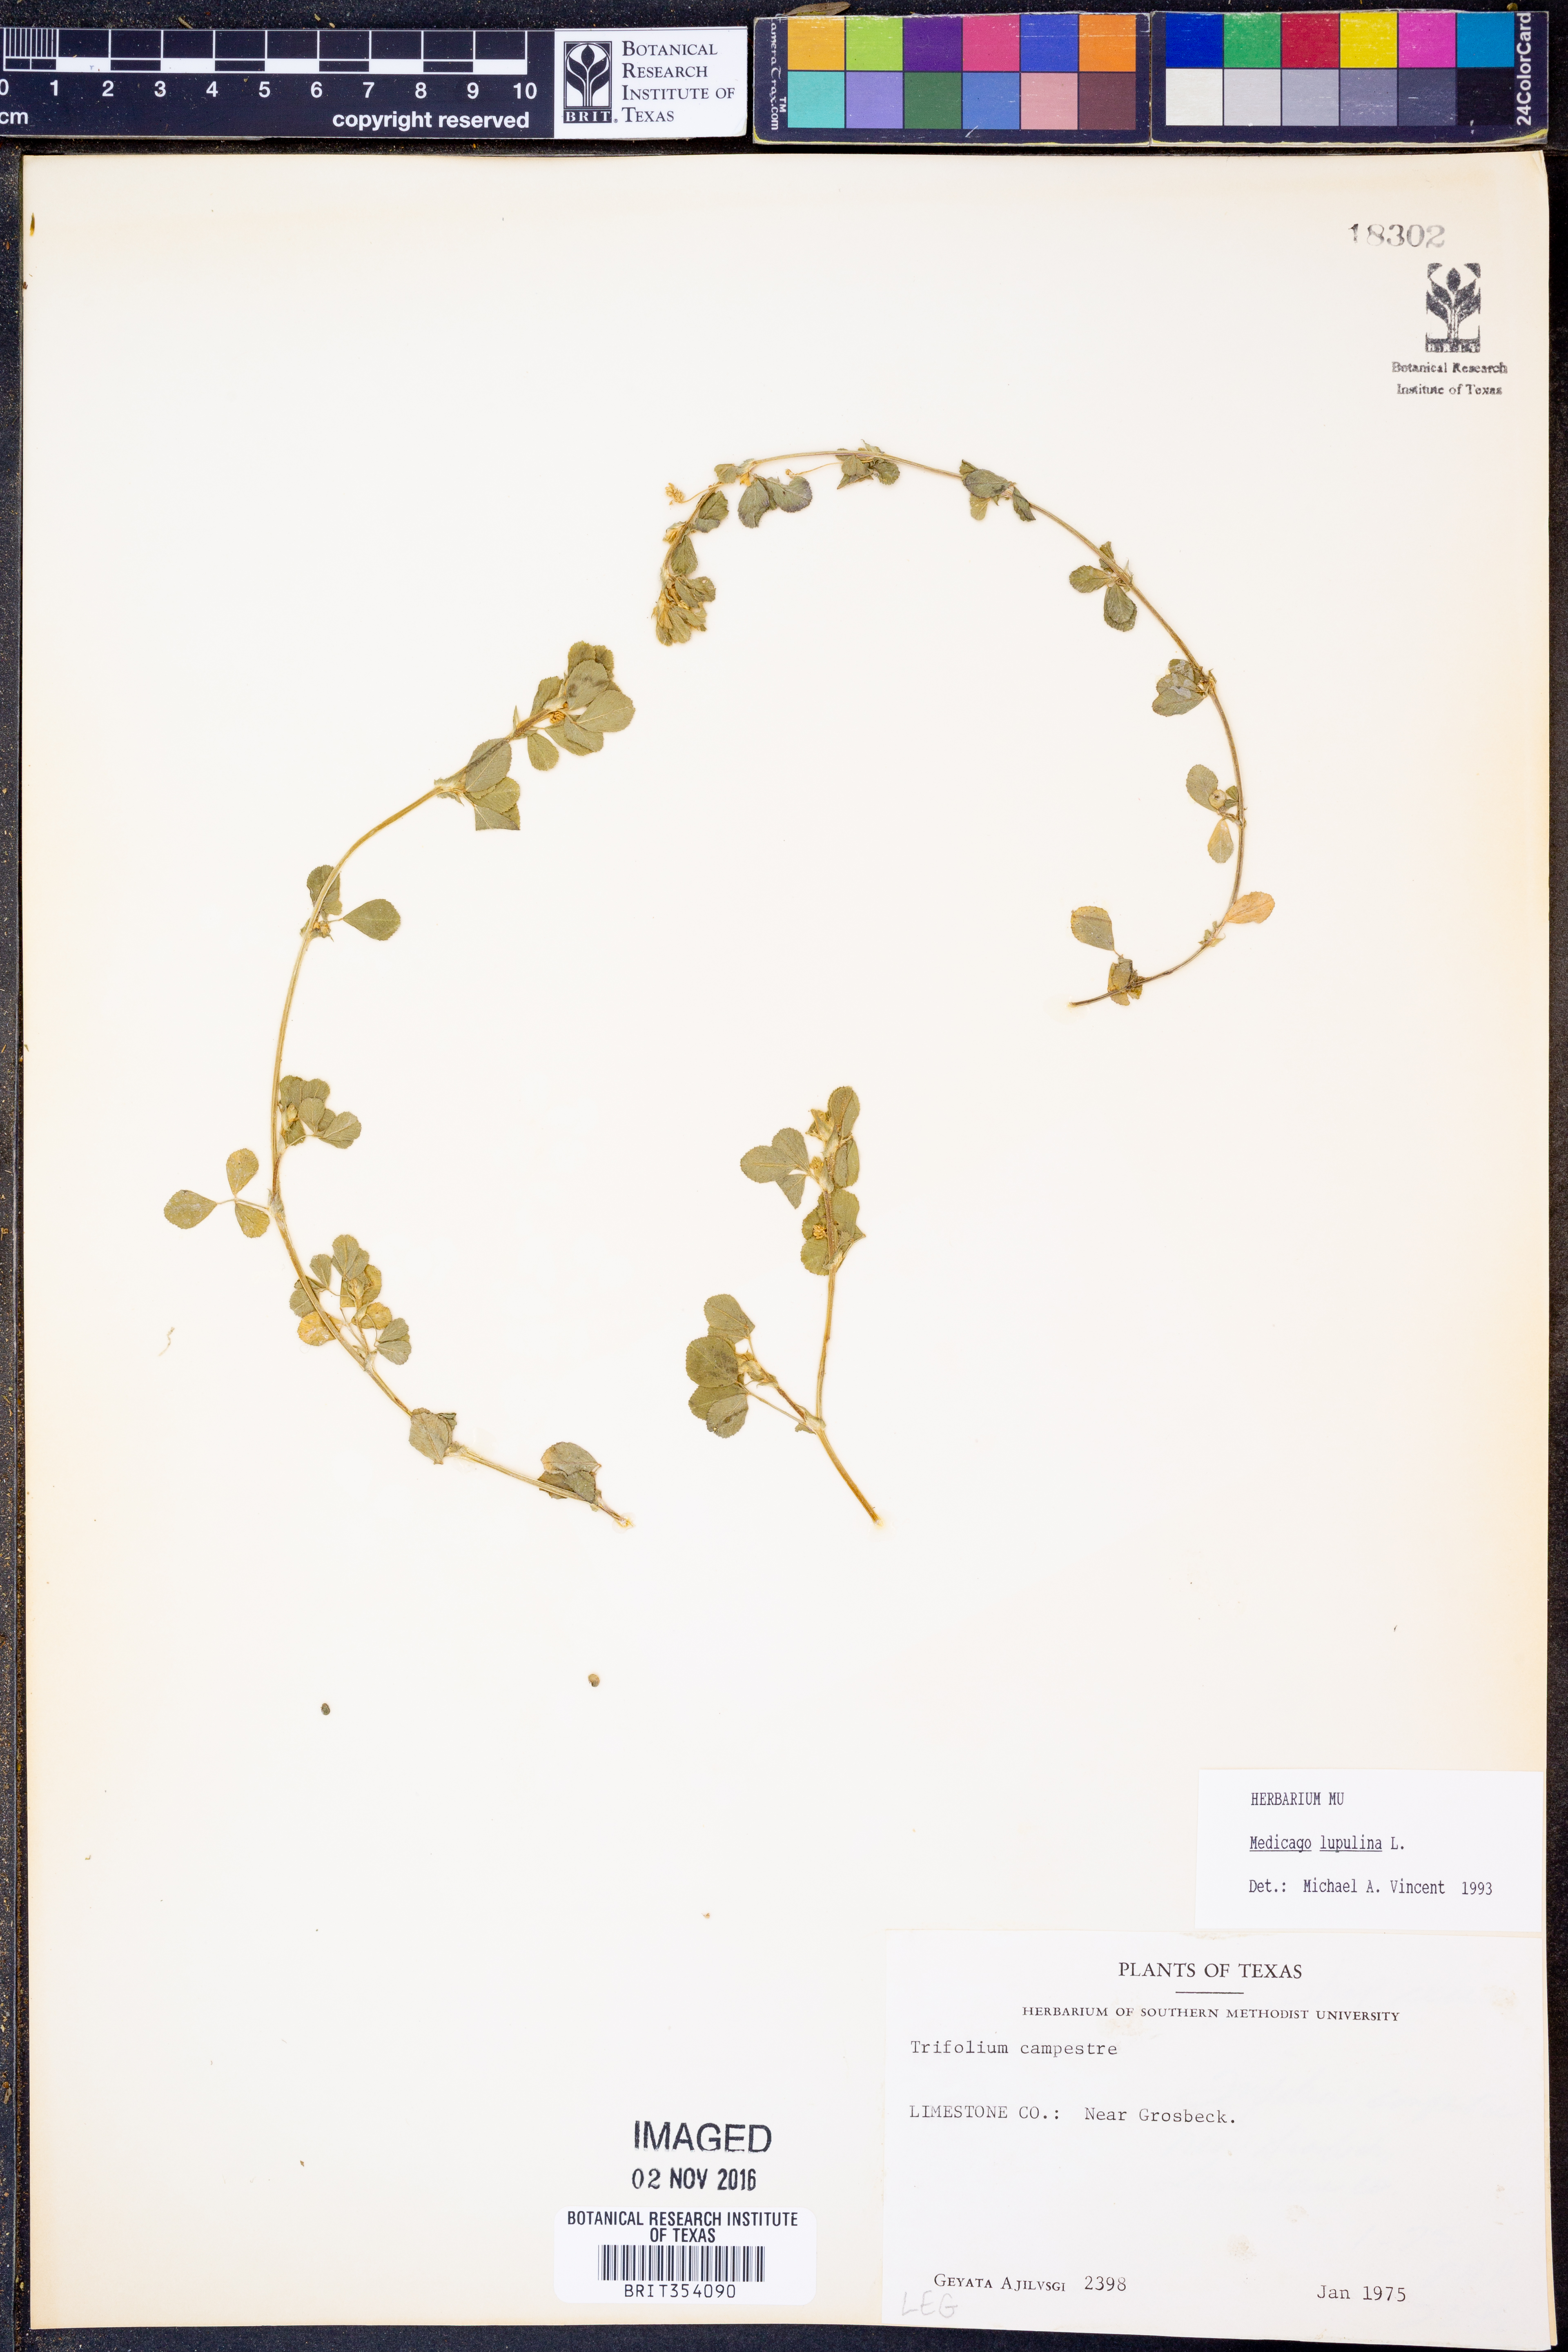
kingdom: Plantae
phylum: Tracheophyta
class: Magnoliopsida
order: Fabales
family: Fabaceae
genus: Medicago
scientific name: Medicago lupulina
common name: Black medick
